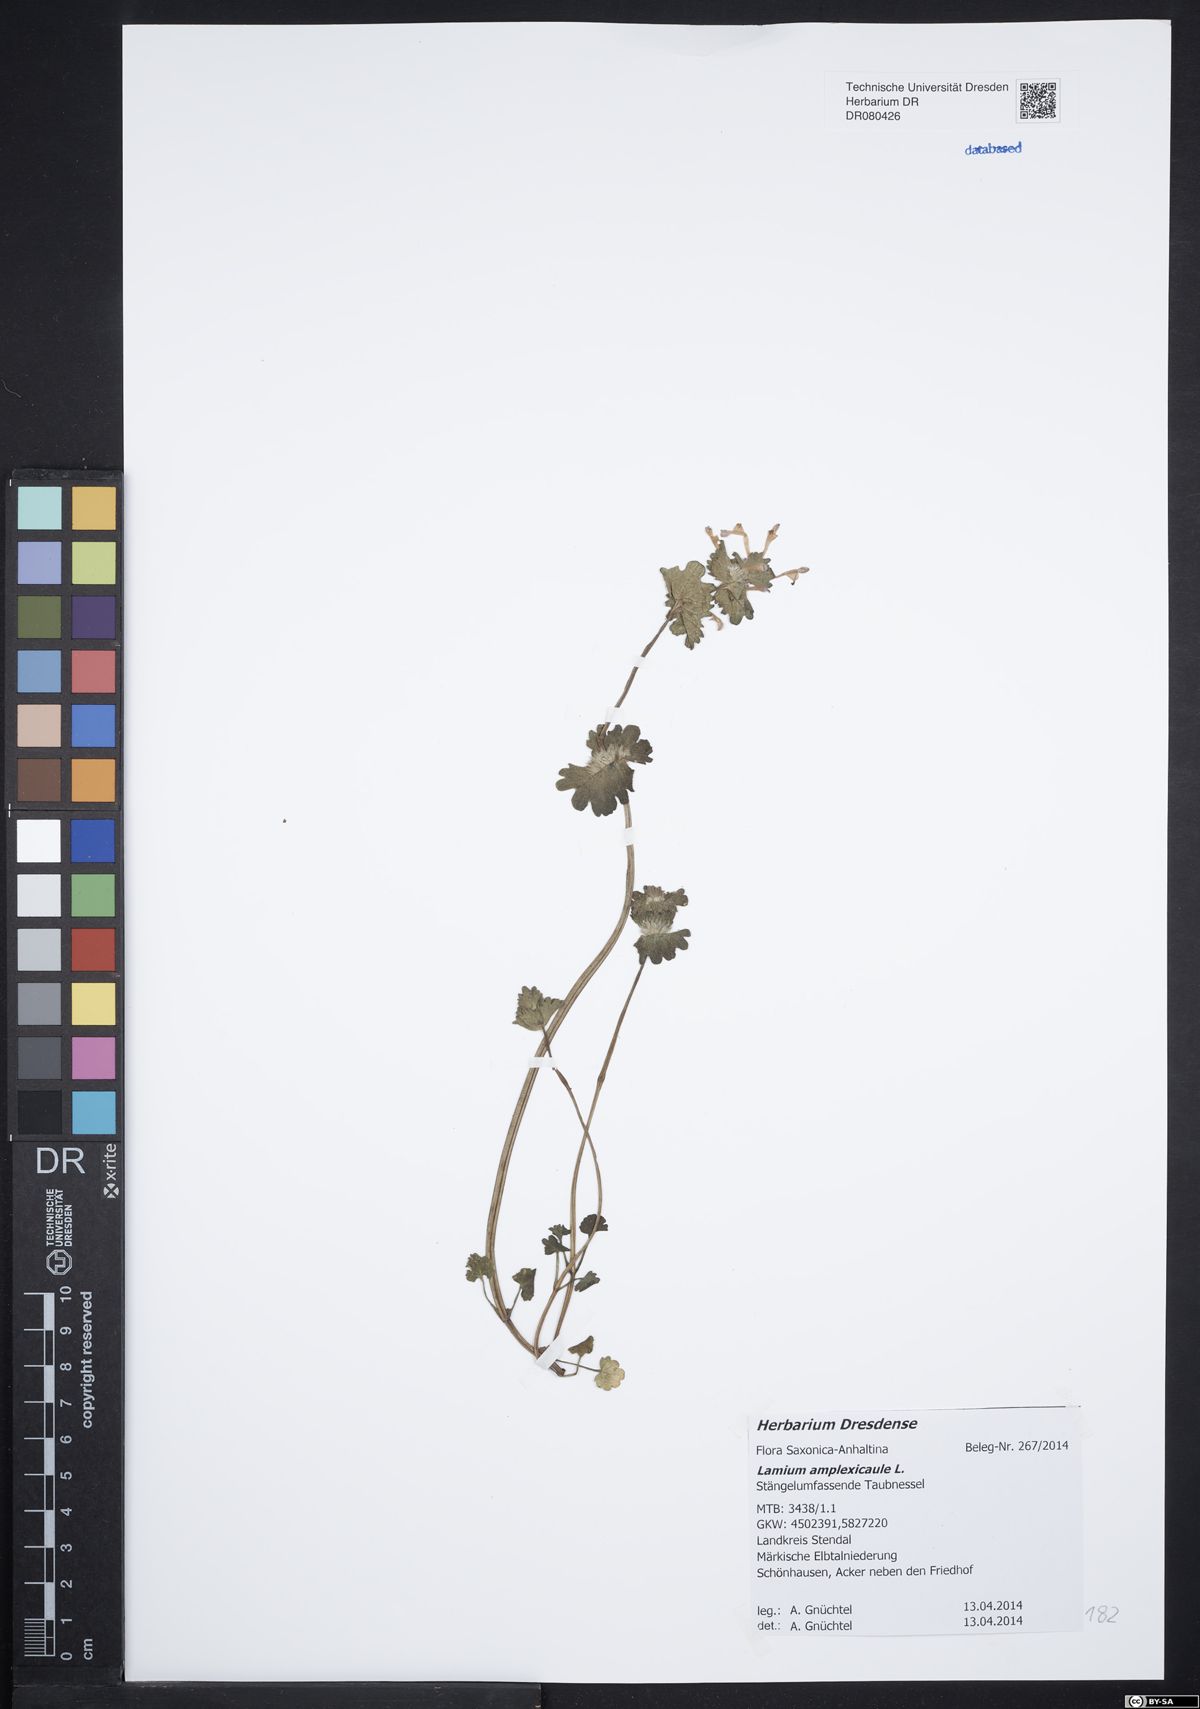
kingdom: Plantae
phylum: Tracheophyta
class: Magnoliopsida
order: Lamiales
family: Lamiaceae
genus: Lamium
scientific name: Lamium amplexicaule
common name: Henbit dead-nettle
